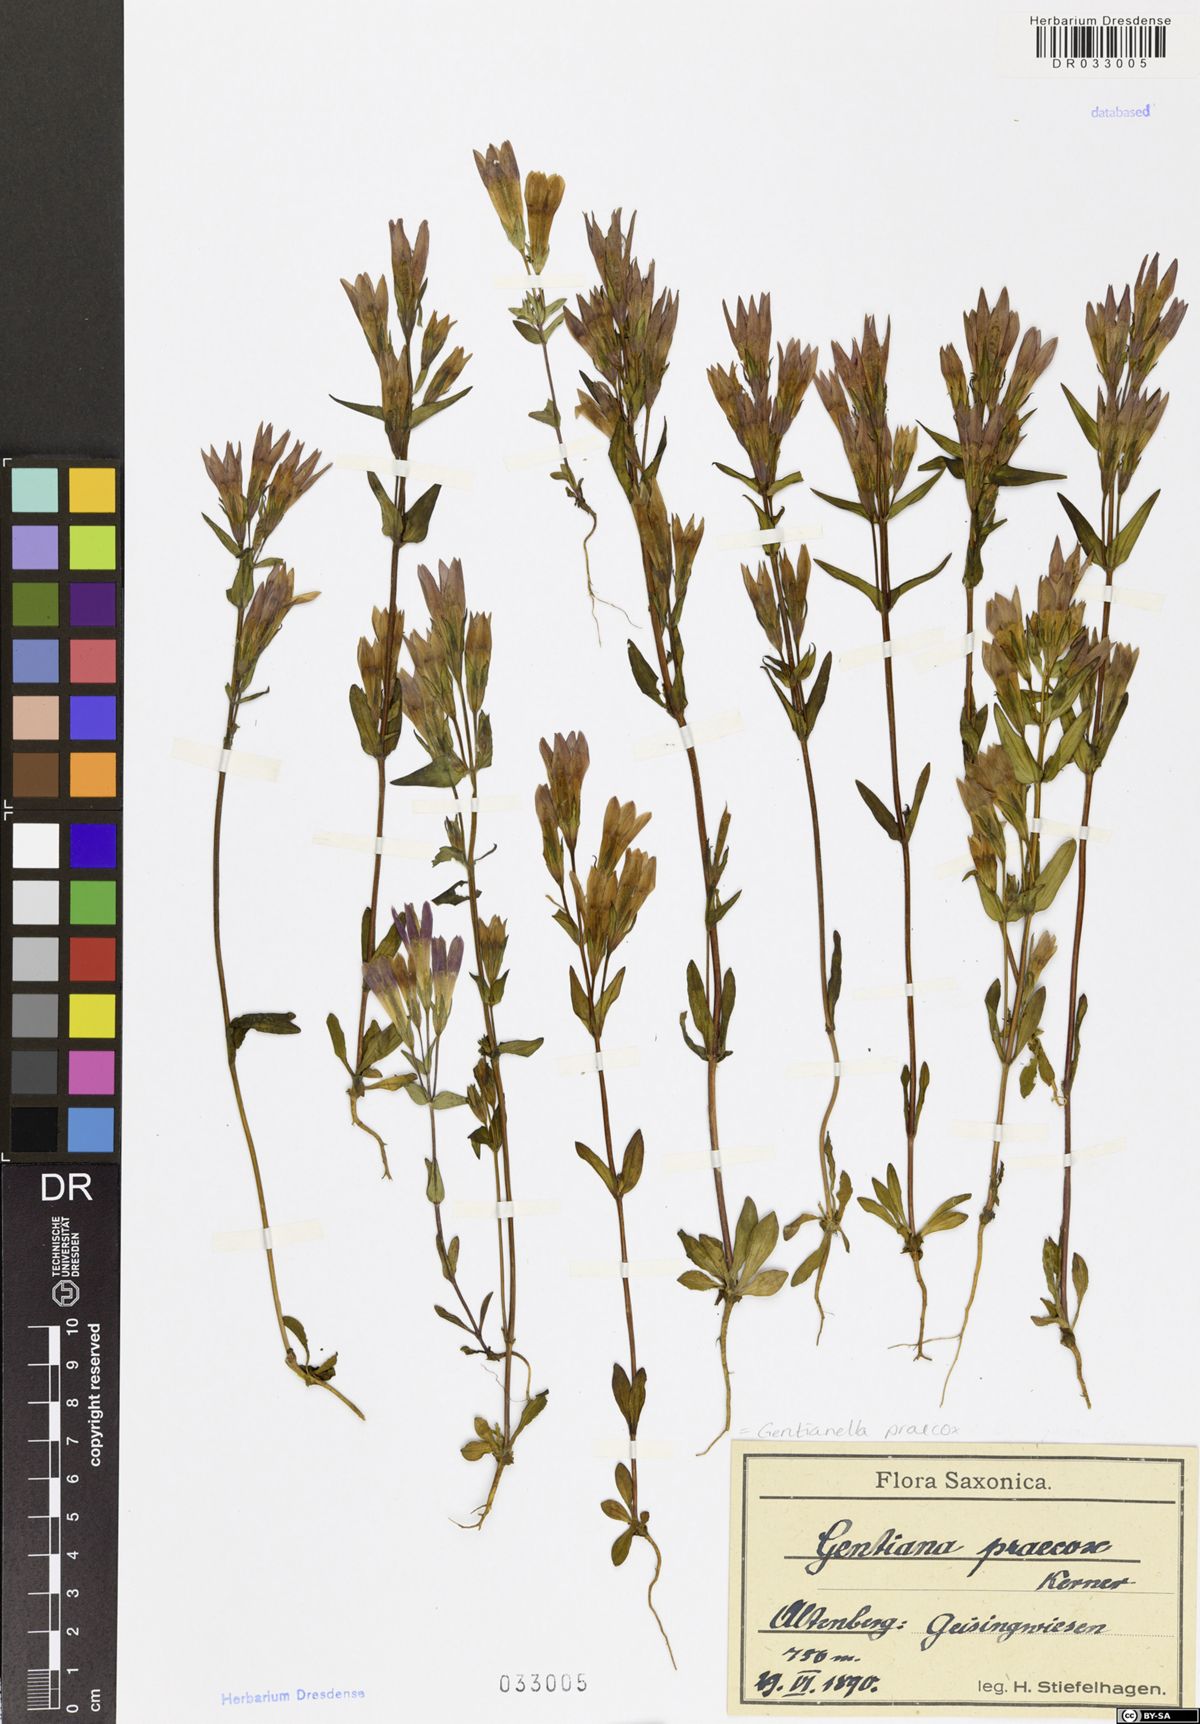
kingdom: Plantae
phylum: Tracheophyta
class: Magnoliopsida
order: Gentianales
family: Gentianaceae
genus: Gentianella
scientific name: Gentianella praecox
